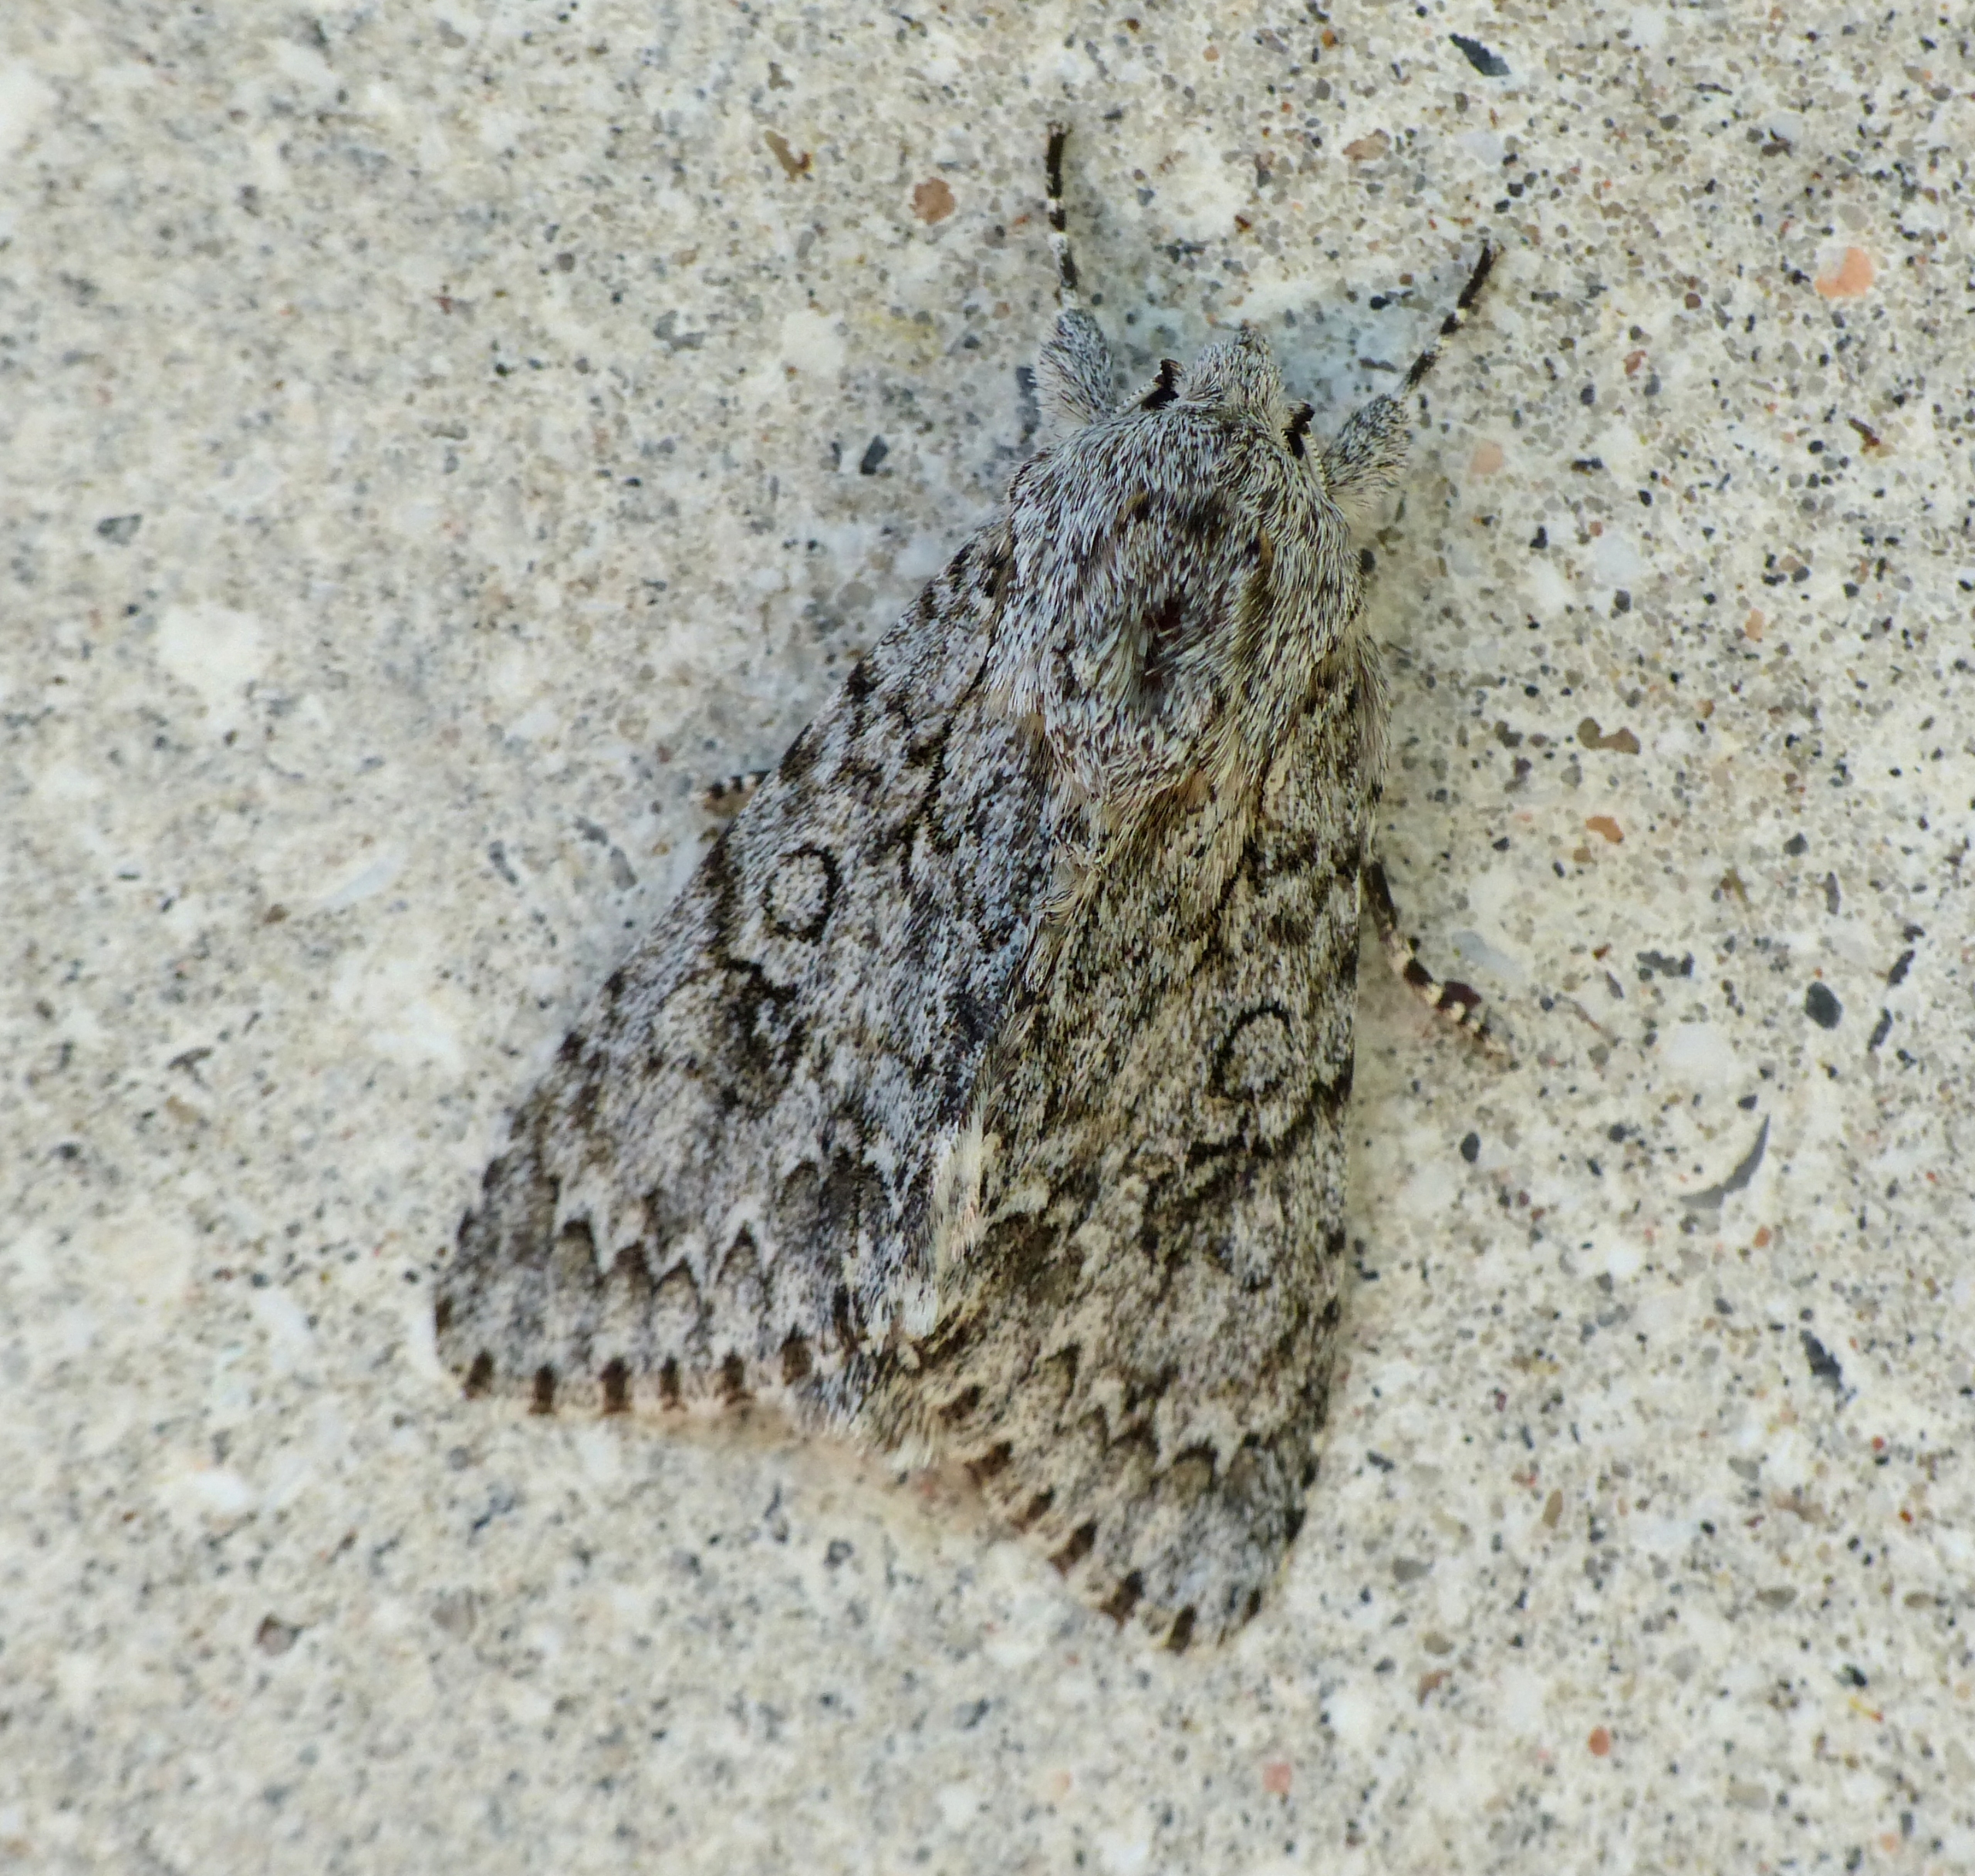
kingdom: Animalia
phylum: Arthropoda
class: Insecta
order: Lepidoptera
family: Noctuidae
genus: Acronicta
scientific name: Acronicta aceris
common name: Ahornugle
